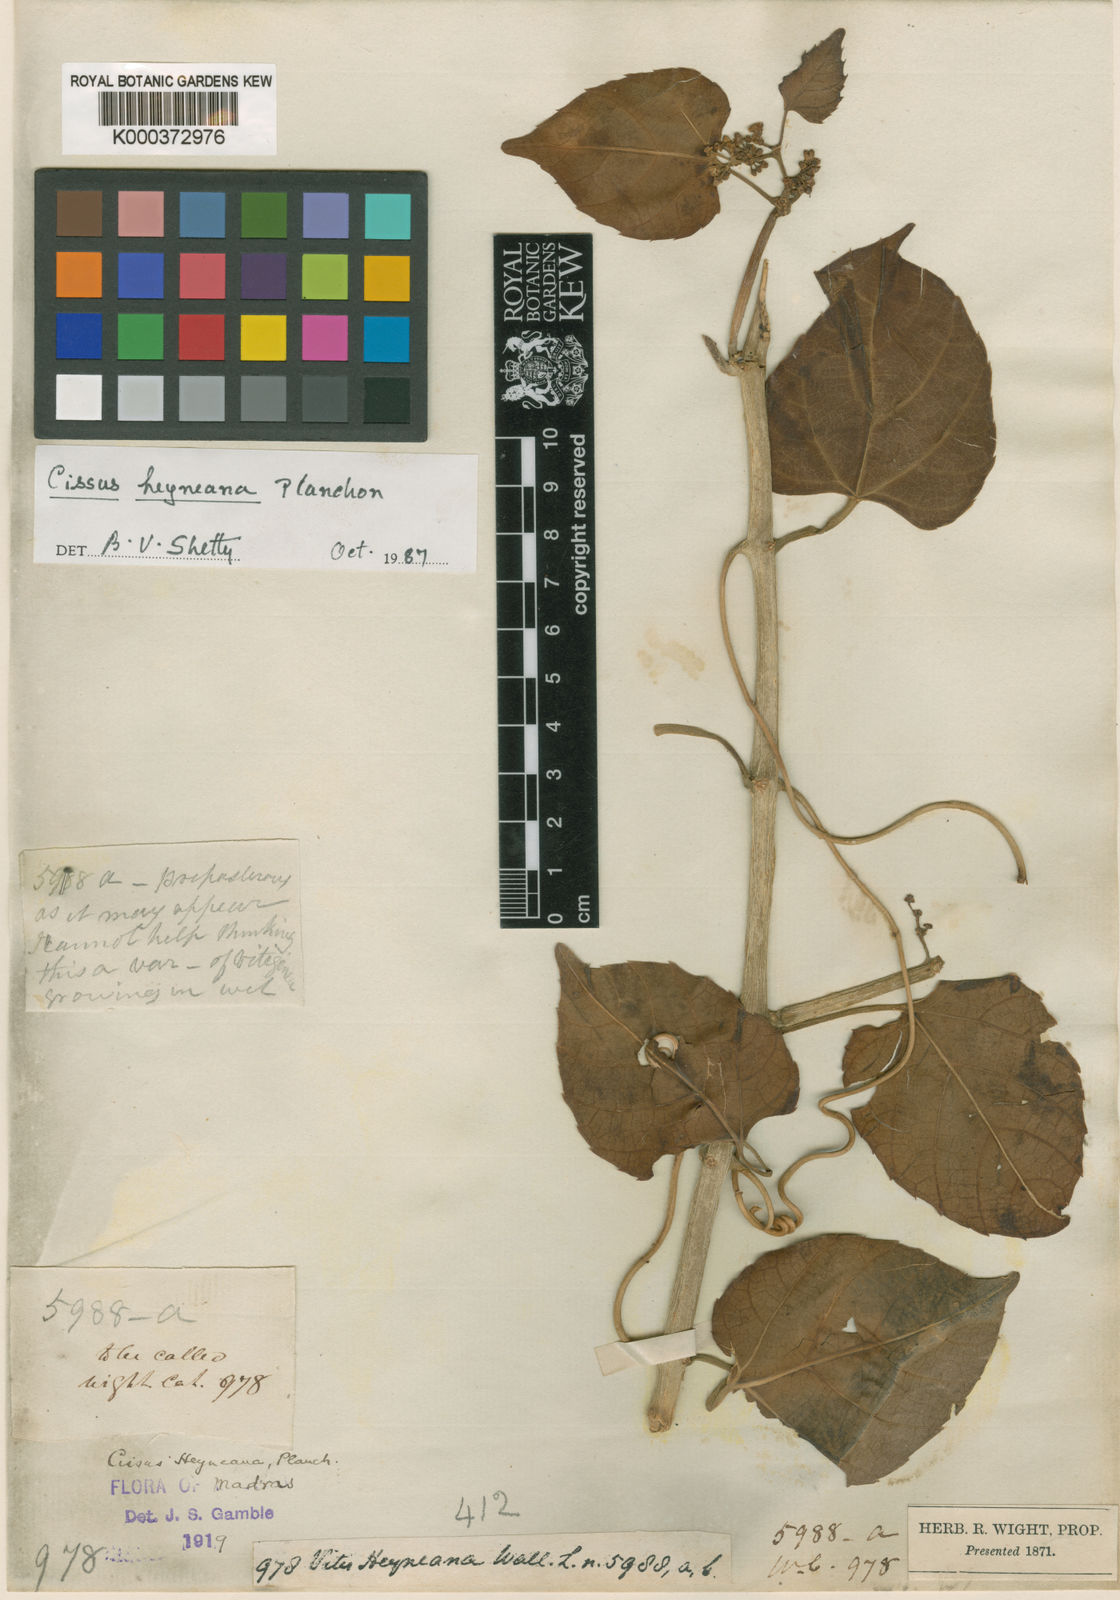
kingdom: Plantae
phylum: Tracheophyta
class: Magnoliopsida
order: Vitales
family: Vitaceae
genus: Cissus
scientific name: Cissus
